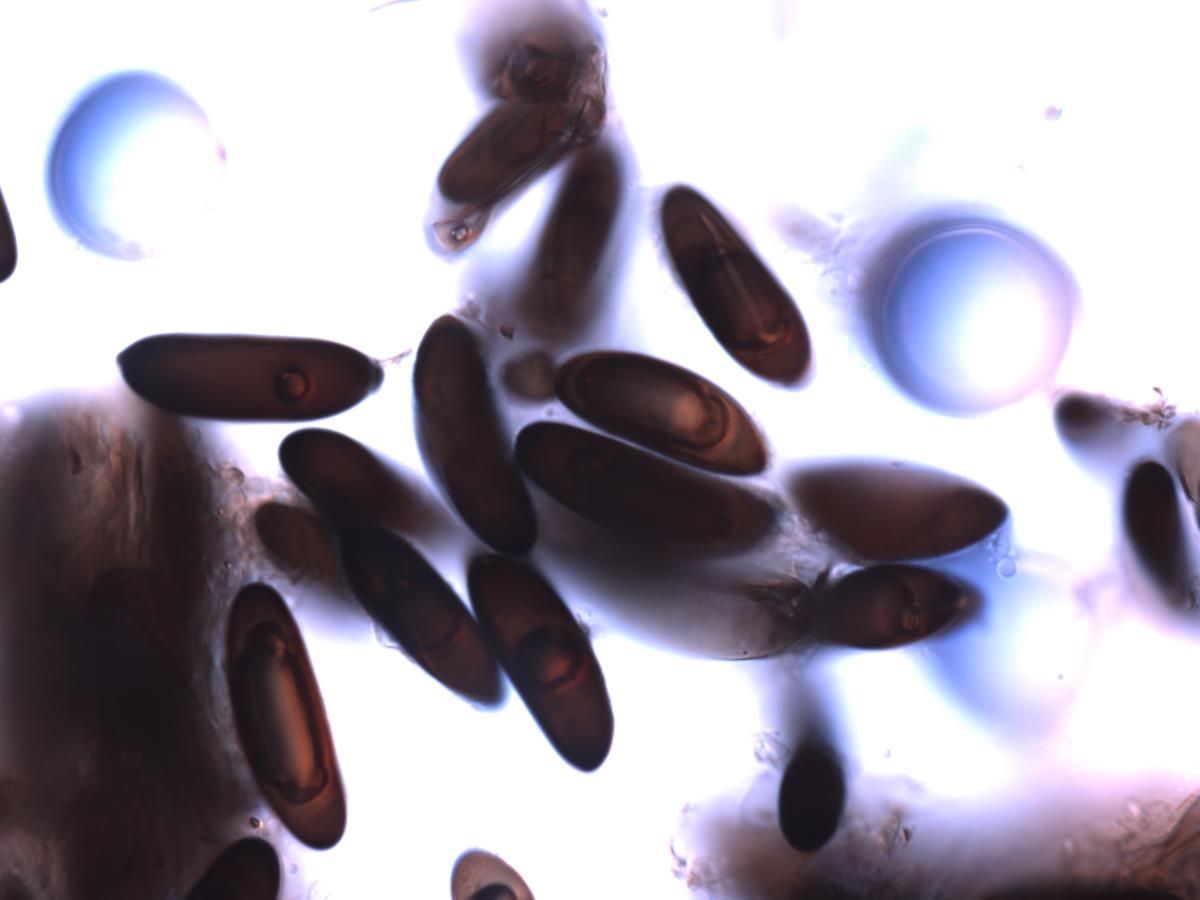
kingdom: Fungi
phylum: Ascomycota
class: Sordariomycetes
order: Xylariales
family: Xylariaceae
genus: Kretzschmaria
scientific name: Kretzschmaria clavus
